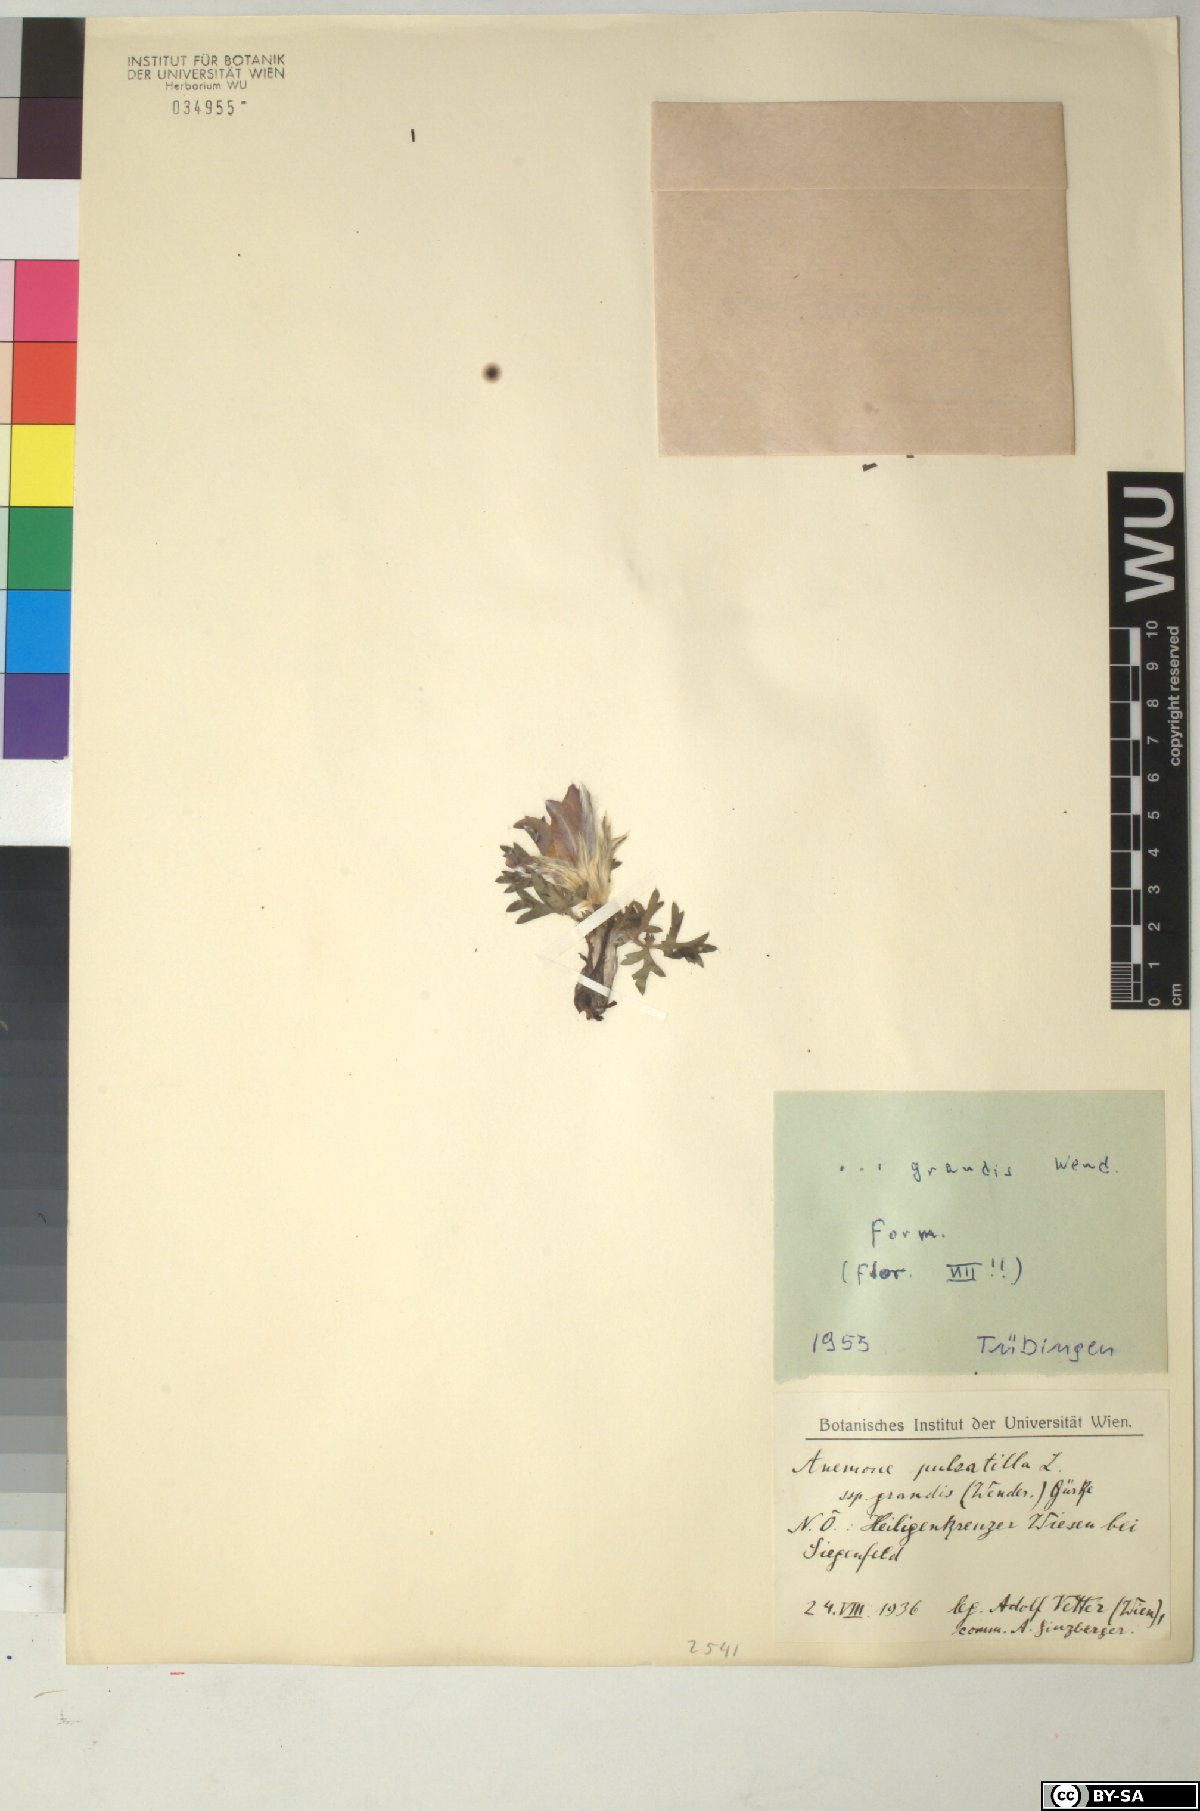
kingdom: Plantae
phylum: Tracheophyta
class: Magnoliopsida
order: Ranunculales
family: Ranunculaceae
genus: Pulsatilla
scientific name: Pulsatilla grandis
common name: Greater pasque flower
